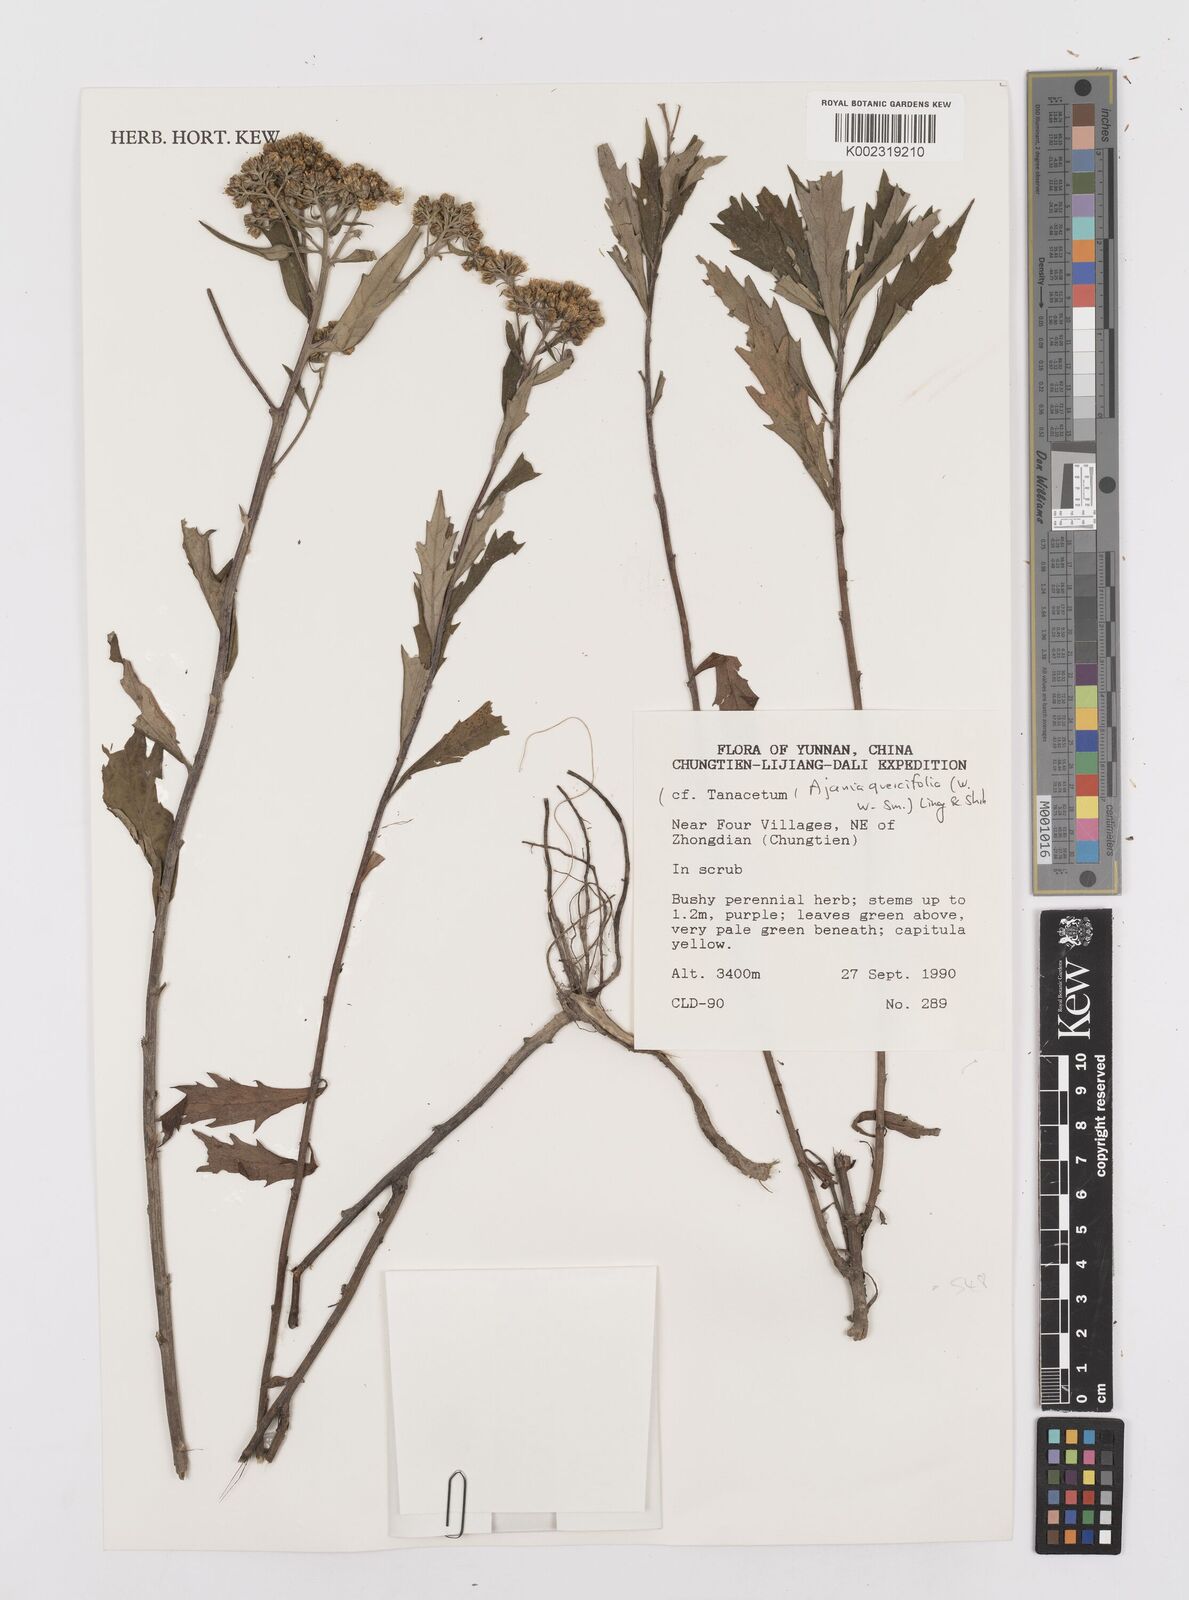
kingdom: Plantae
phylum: Tracheophyta
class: Magnoliopsida
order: Asterales
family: Asteraceae
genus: Phaeostigma
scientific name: Phaeostigma quercifolium
